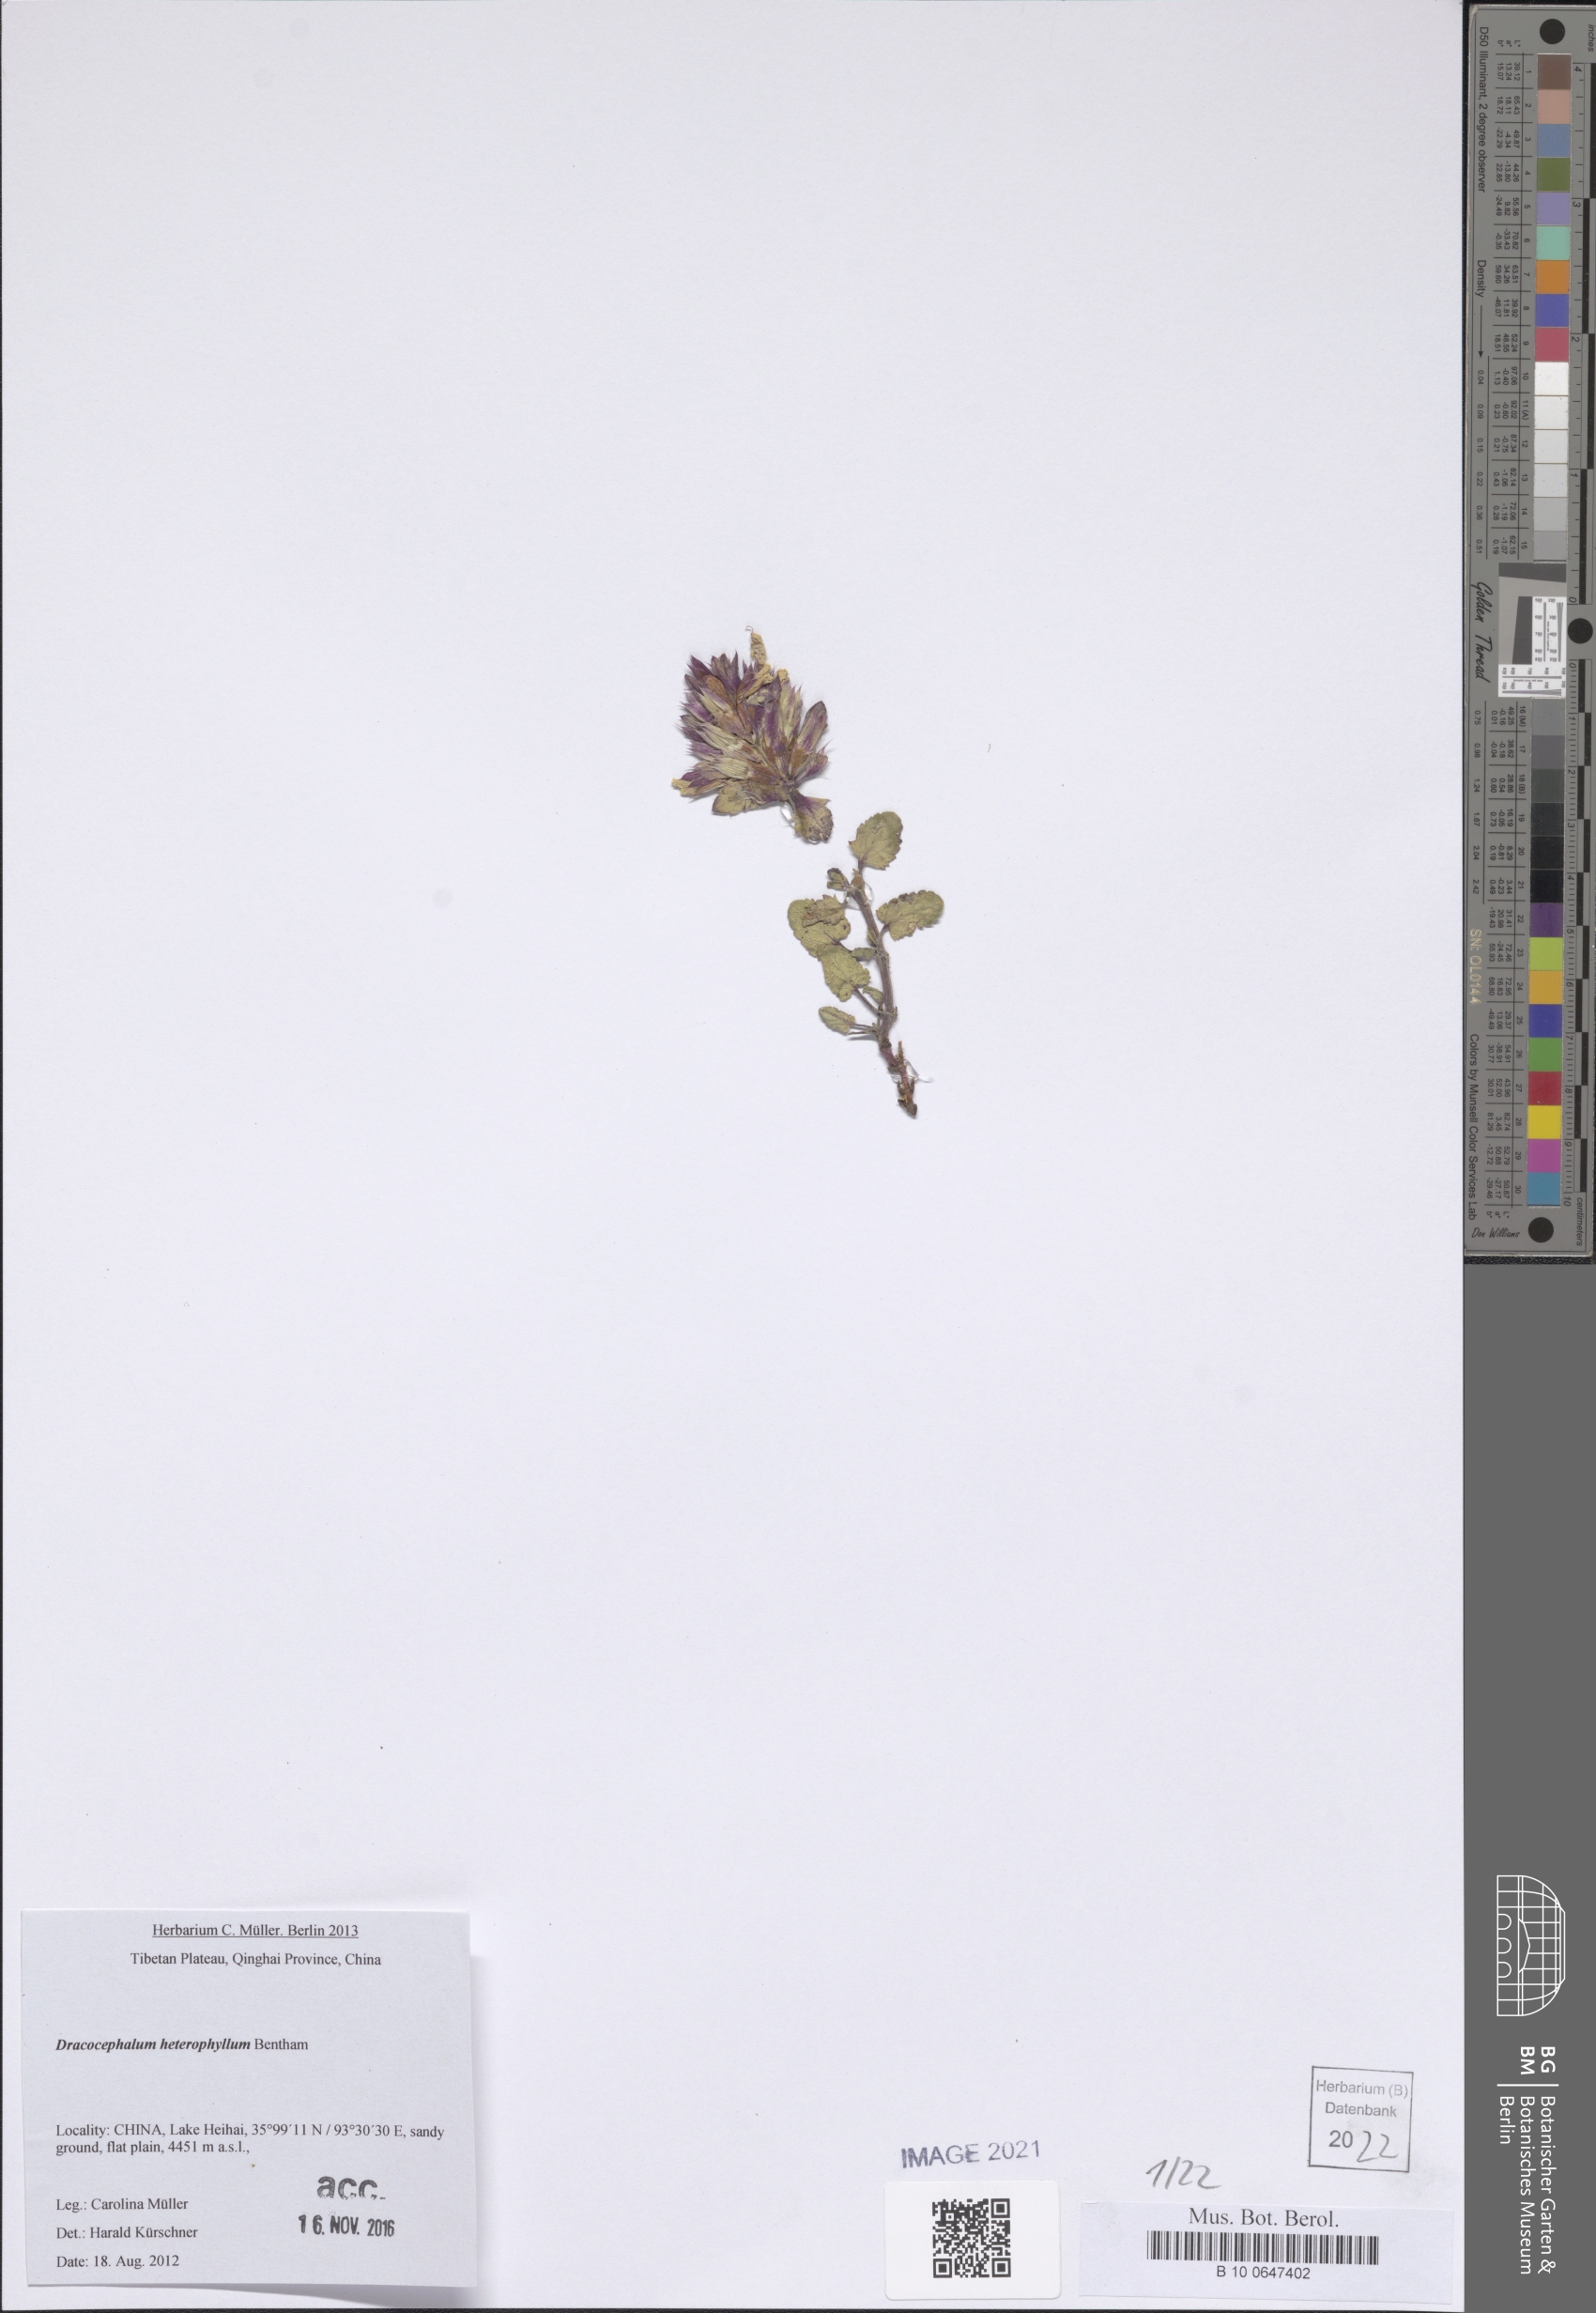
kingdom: Plantae
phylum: Tracheophyta
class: Magnoliopsida
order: Lamiales
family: Lamiaceae
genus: Dracocephalum
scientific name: Dracocephalum heterophyllum
